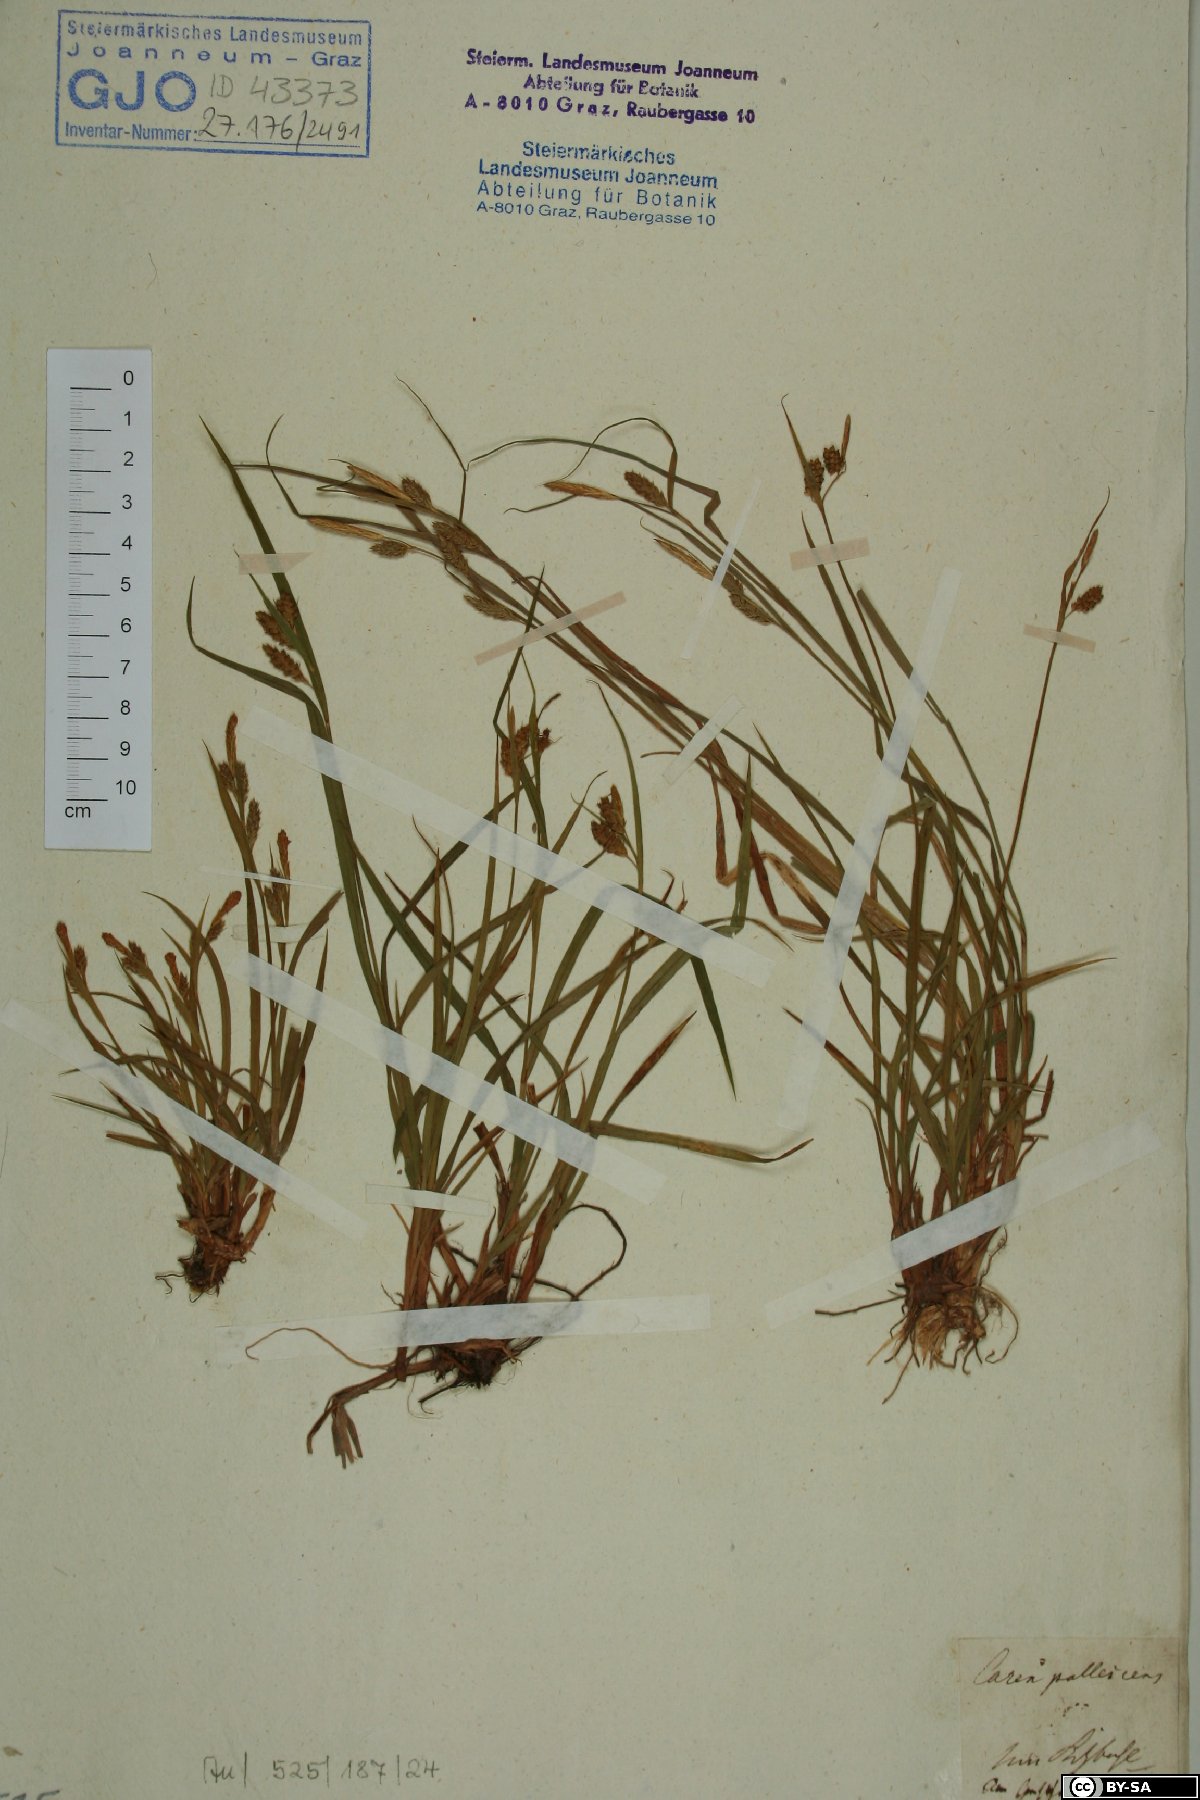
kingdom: Plantae
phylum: Tracheophyta
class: Liliopsida
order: Poales
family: Cyperaceae
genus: Carex
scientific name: Carex pallescens
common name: Pale sedge
